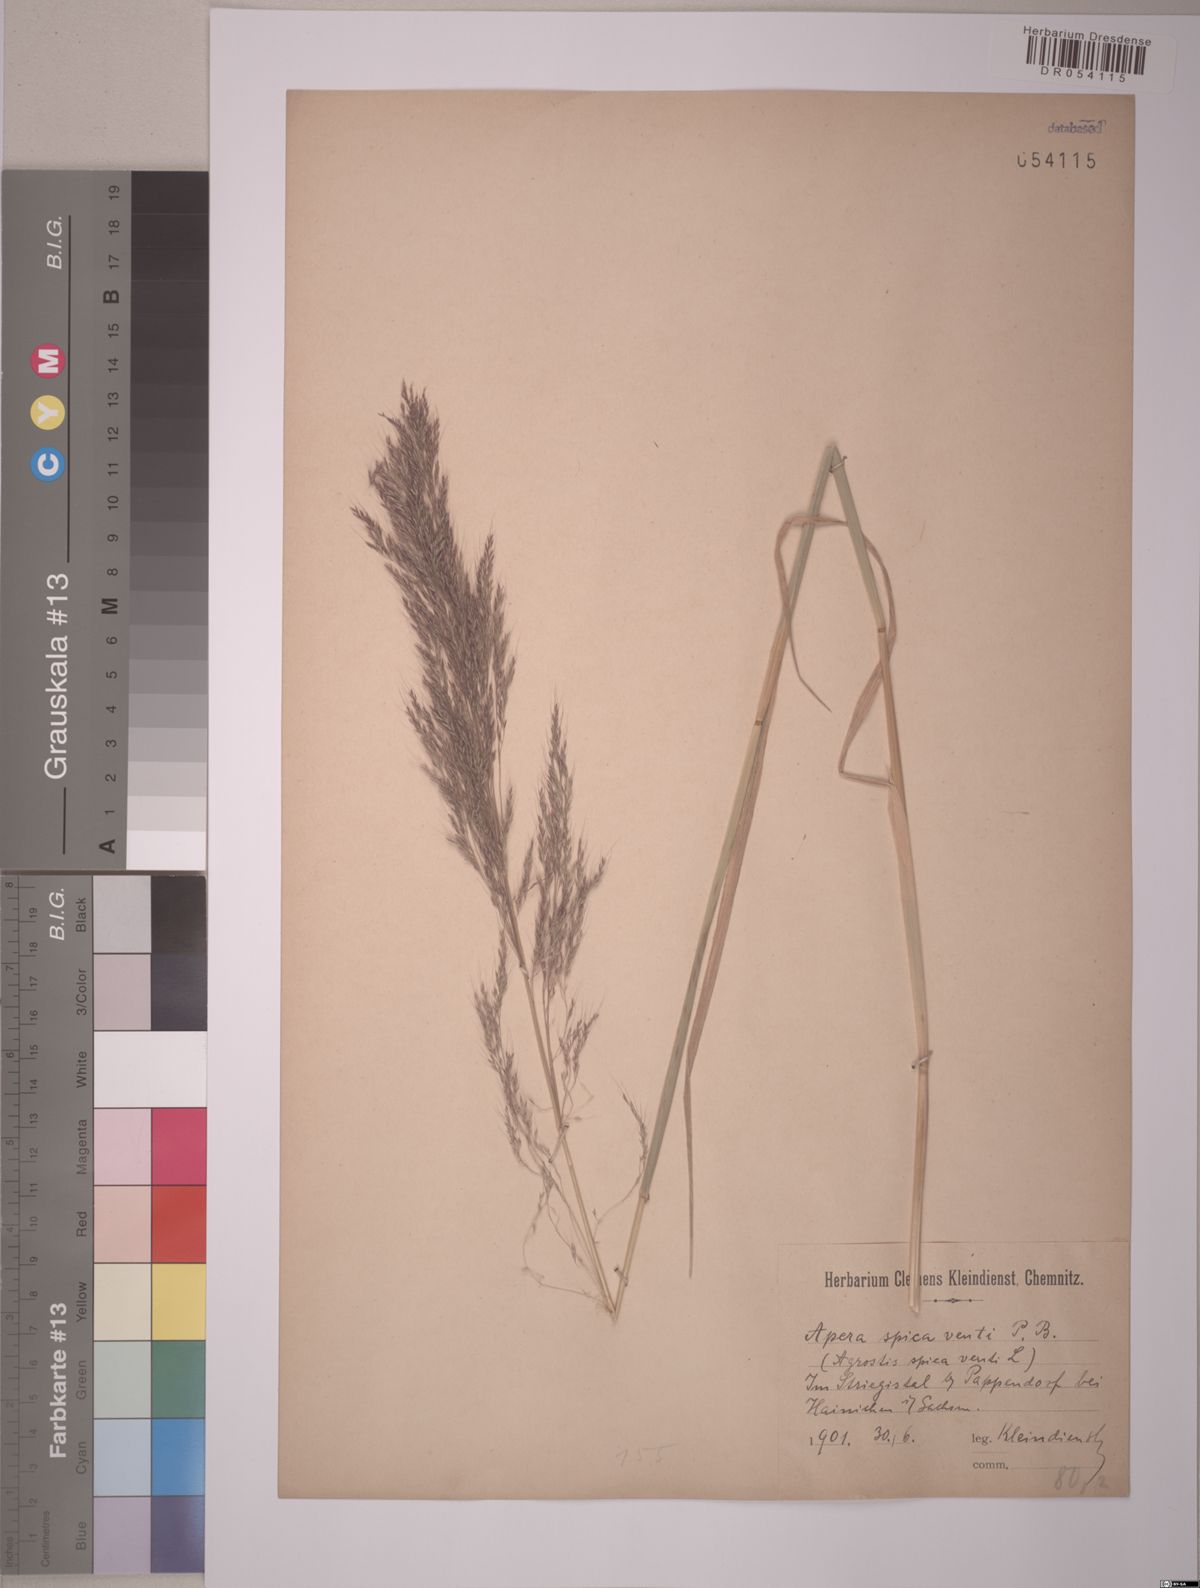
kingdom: Plantae
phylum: Tracheophyta
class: Liliopsida
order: Poales
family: Poaceae
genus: Apera
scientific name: Apera spica-venti
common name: Loose silky-bent
